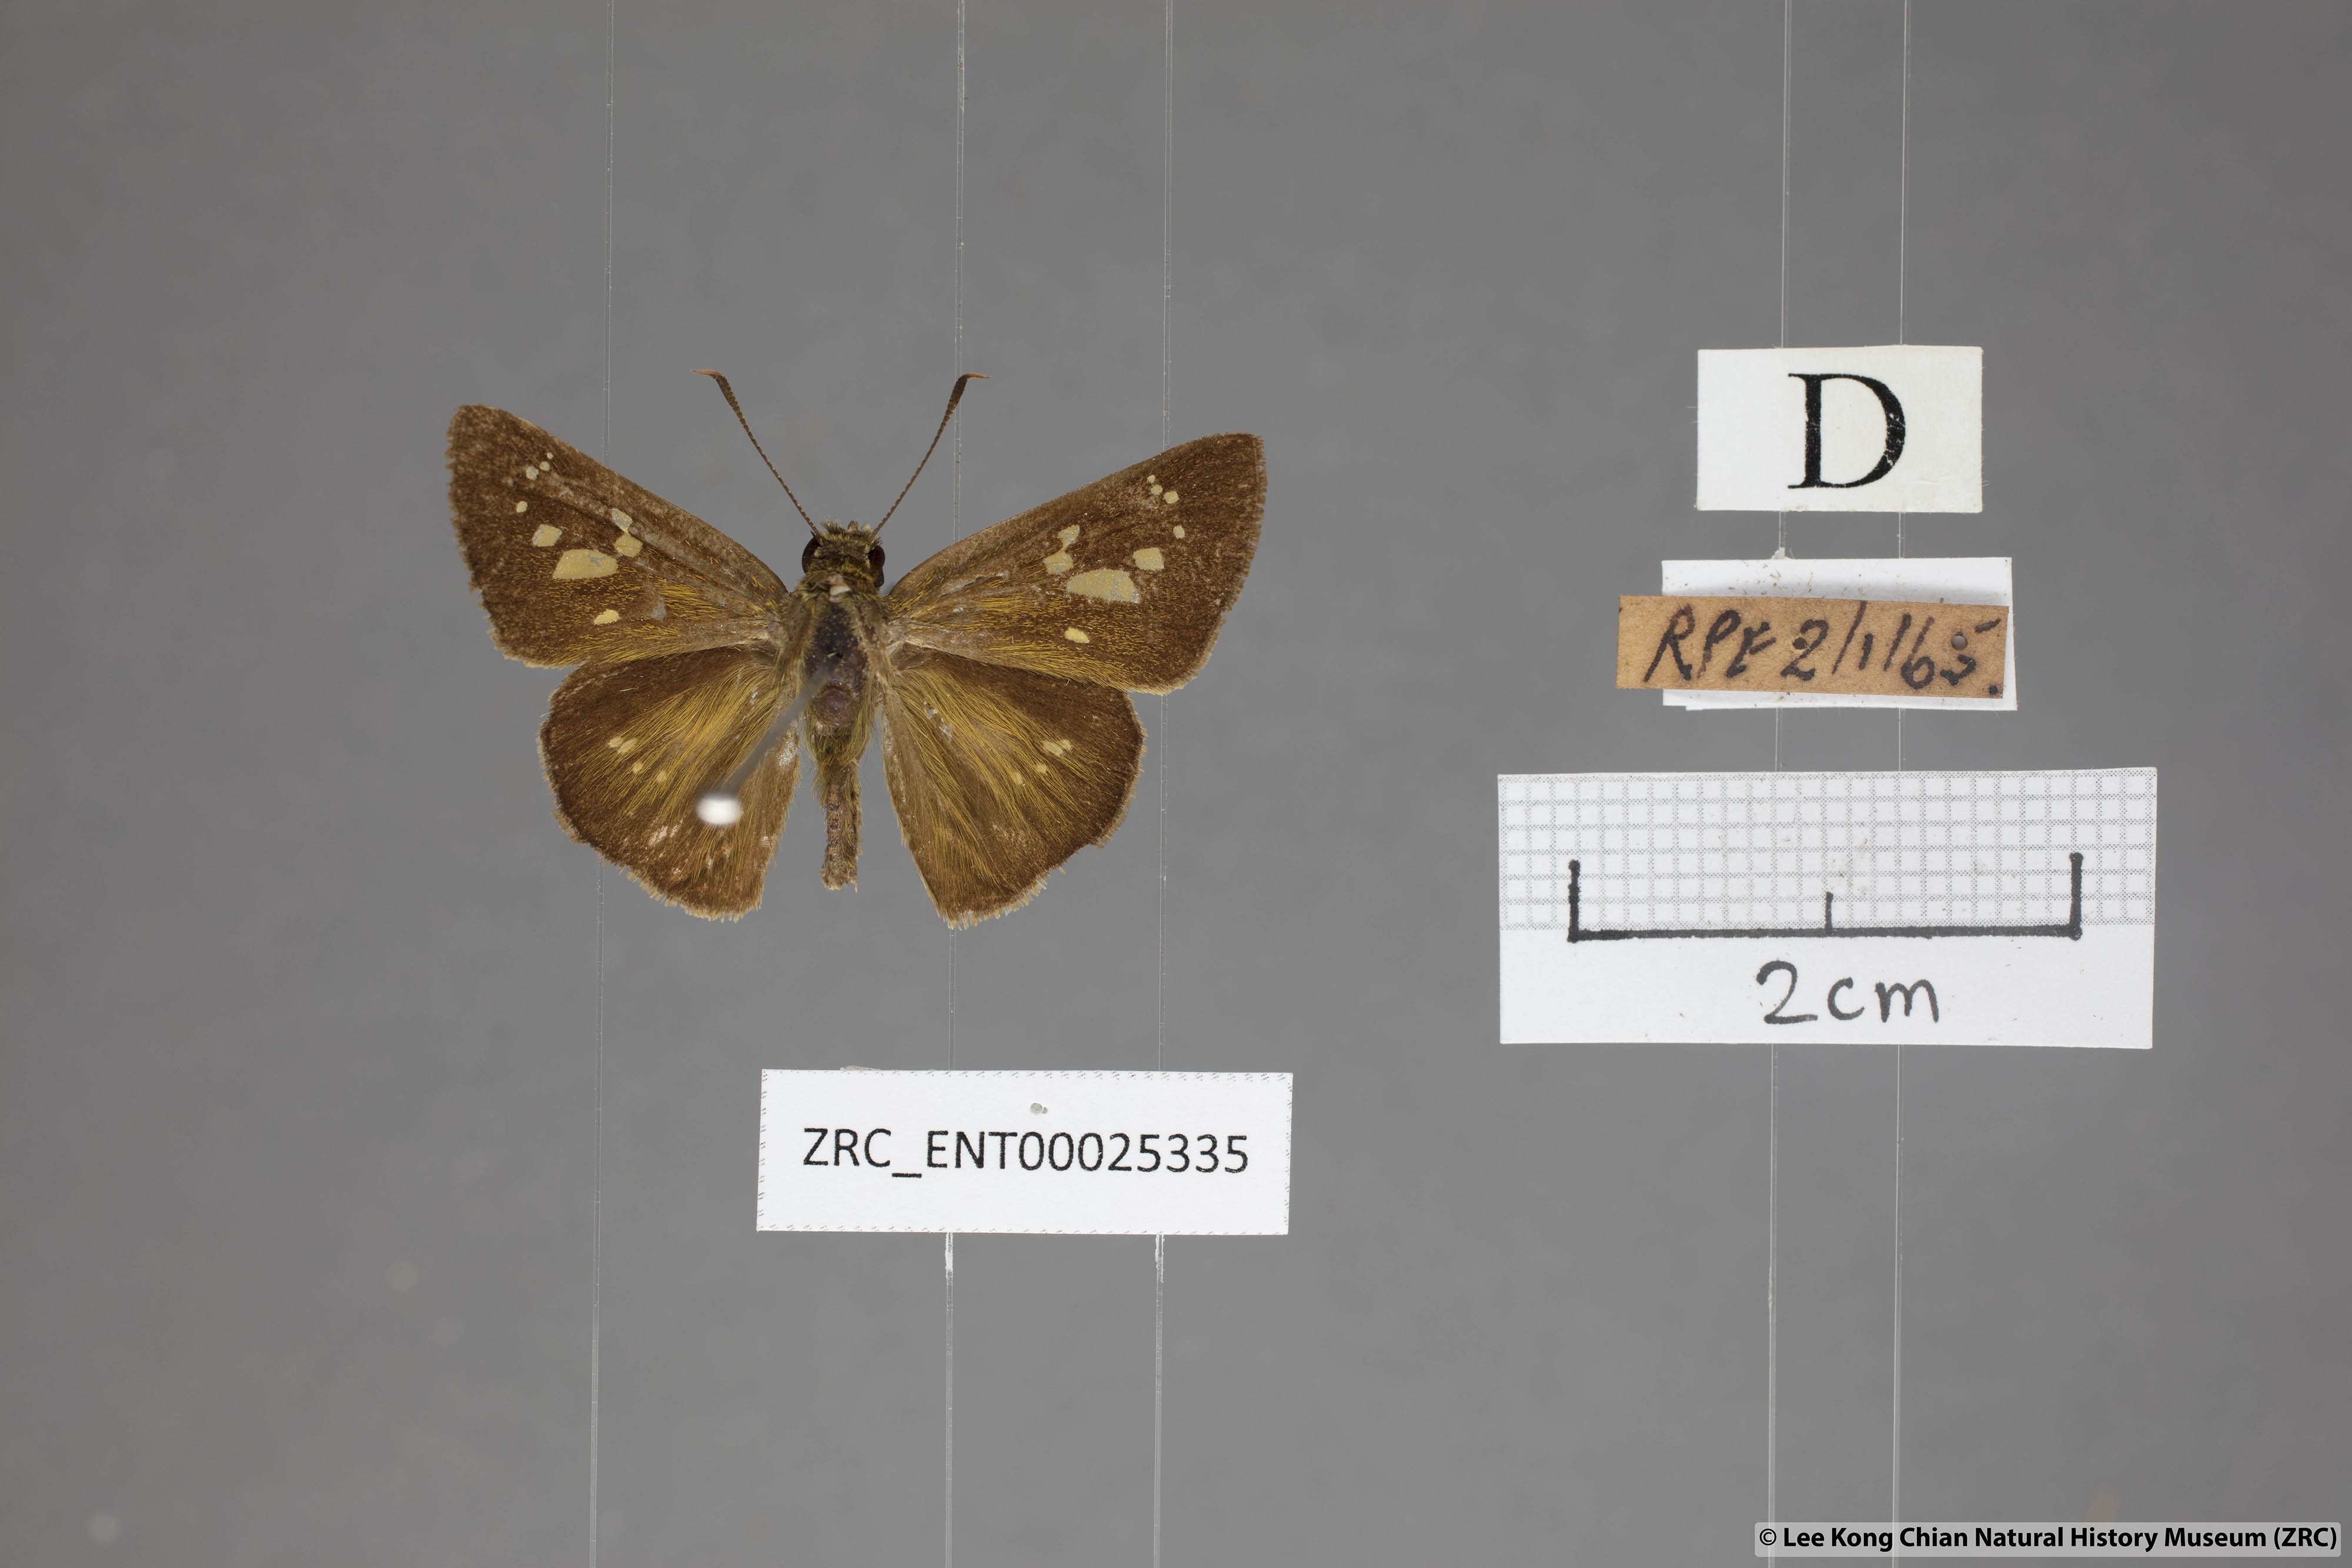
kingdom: Animalia
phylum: Arthropoda
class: Insecta
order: Lepidoptera
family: Hesperiidae
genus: Polytremis
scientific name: Polytremis lubricans
